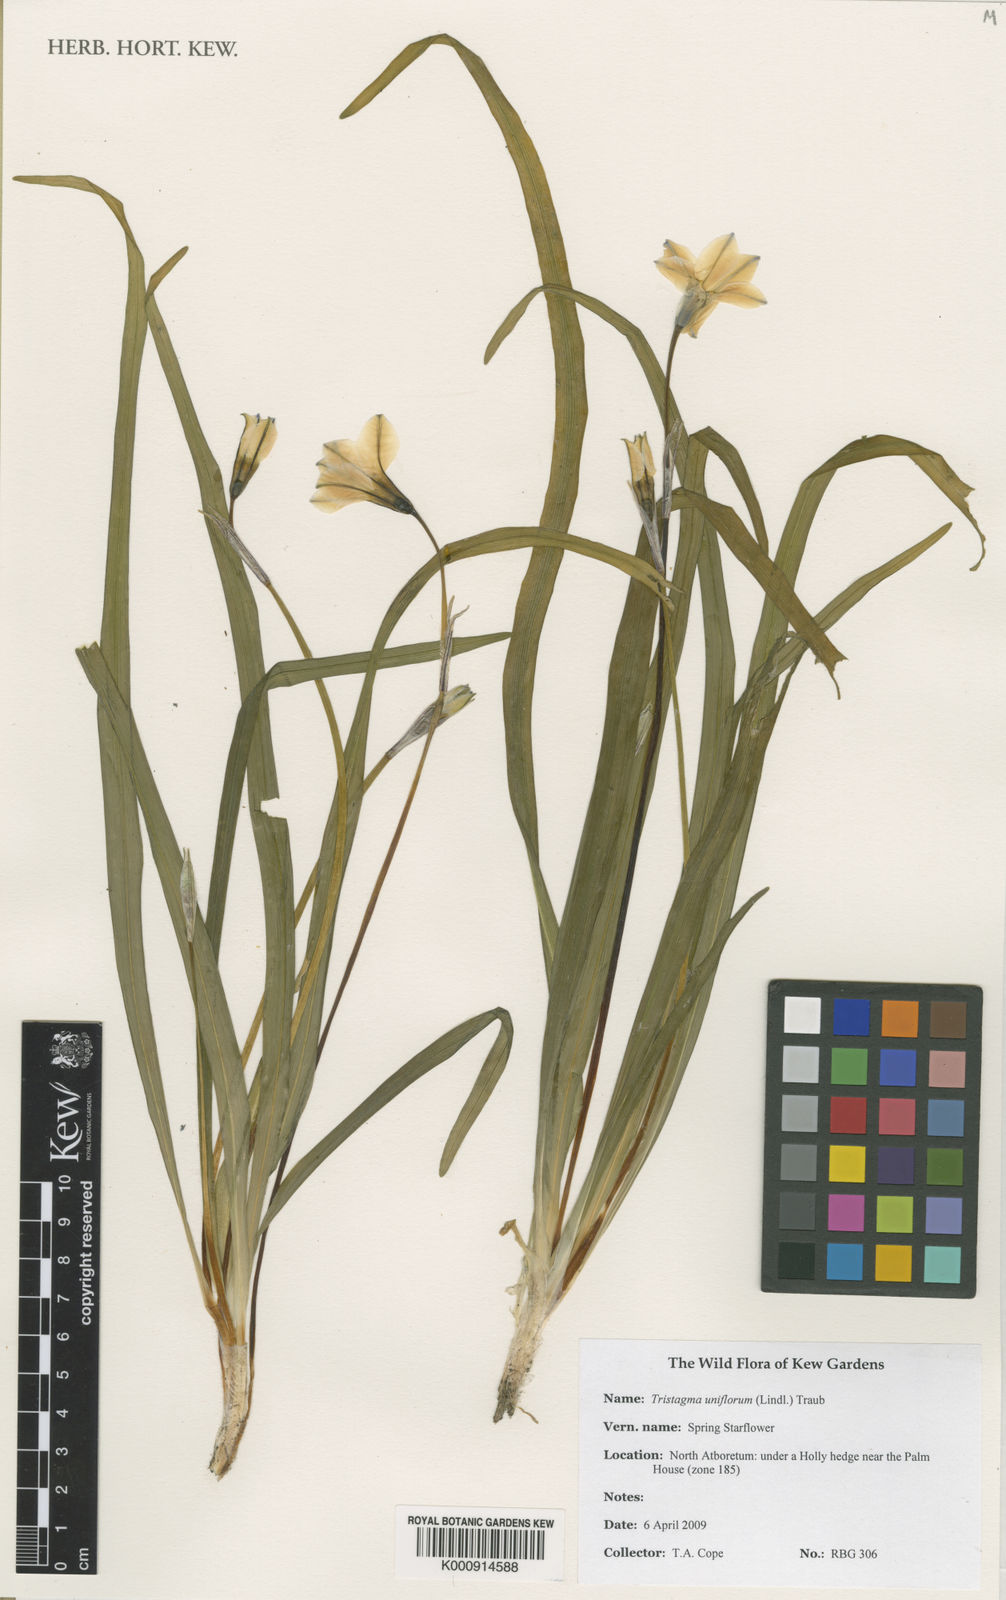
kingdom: Plantae
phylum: Tracheophyta
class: Liliopsida
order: Asparagales
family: Amaryllidaceae
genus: Ipheion
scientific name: Ipheion uniflorum
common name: Spring starflower
